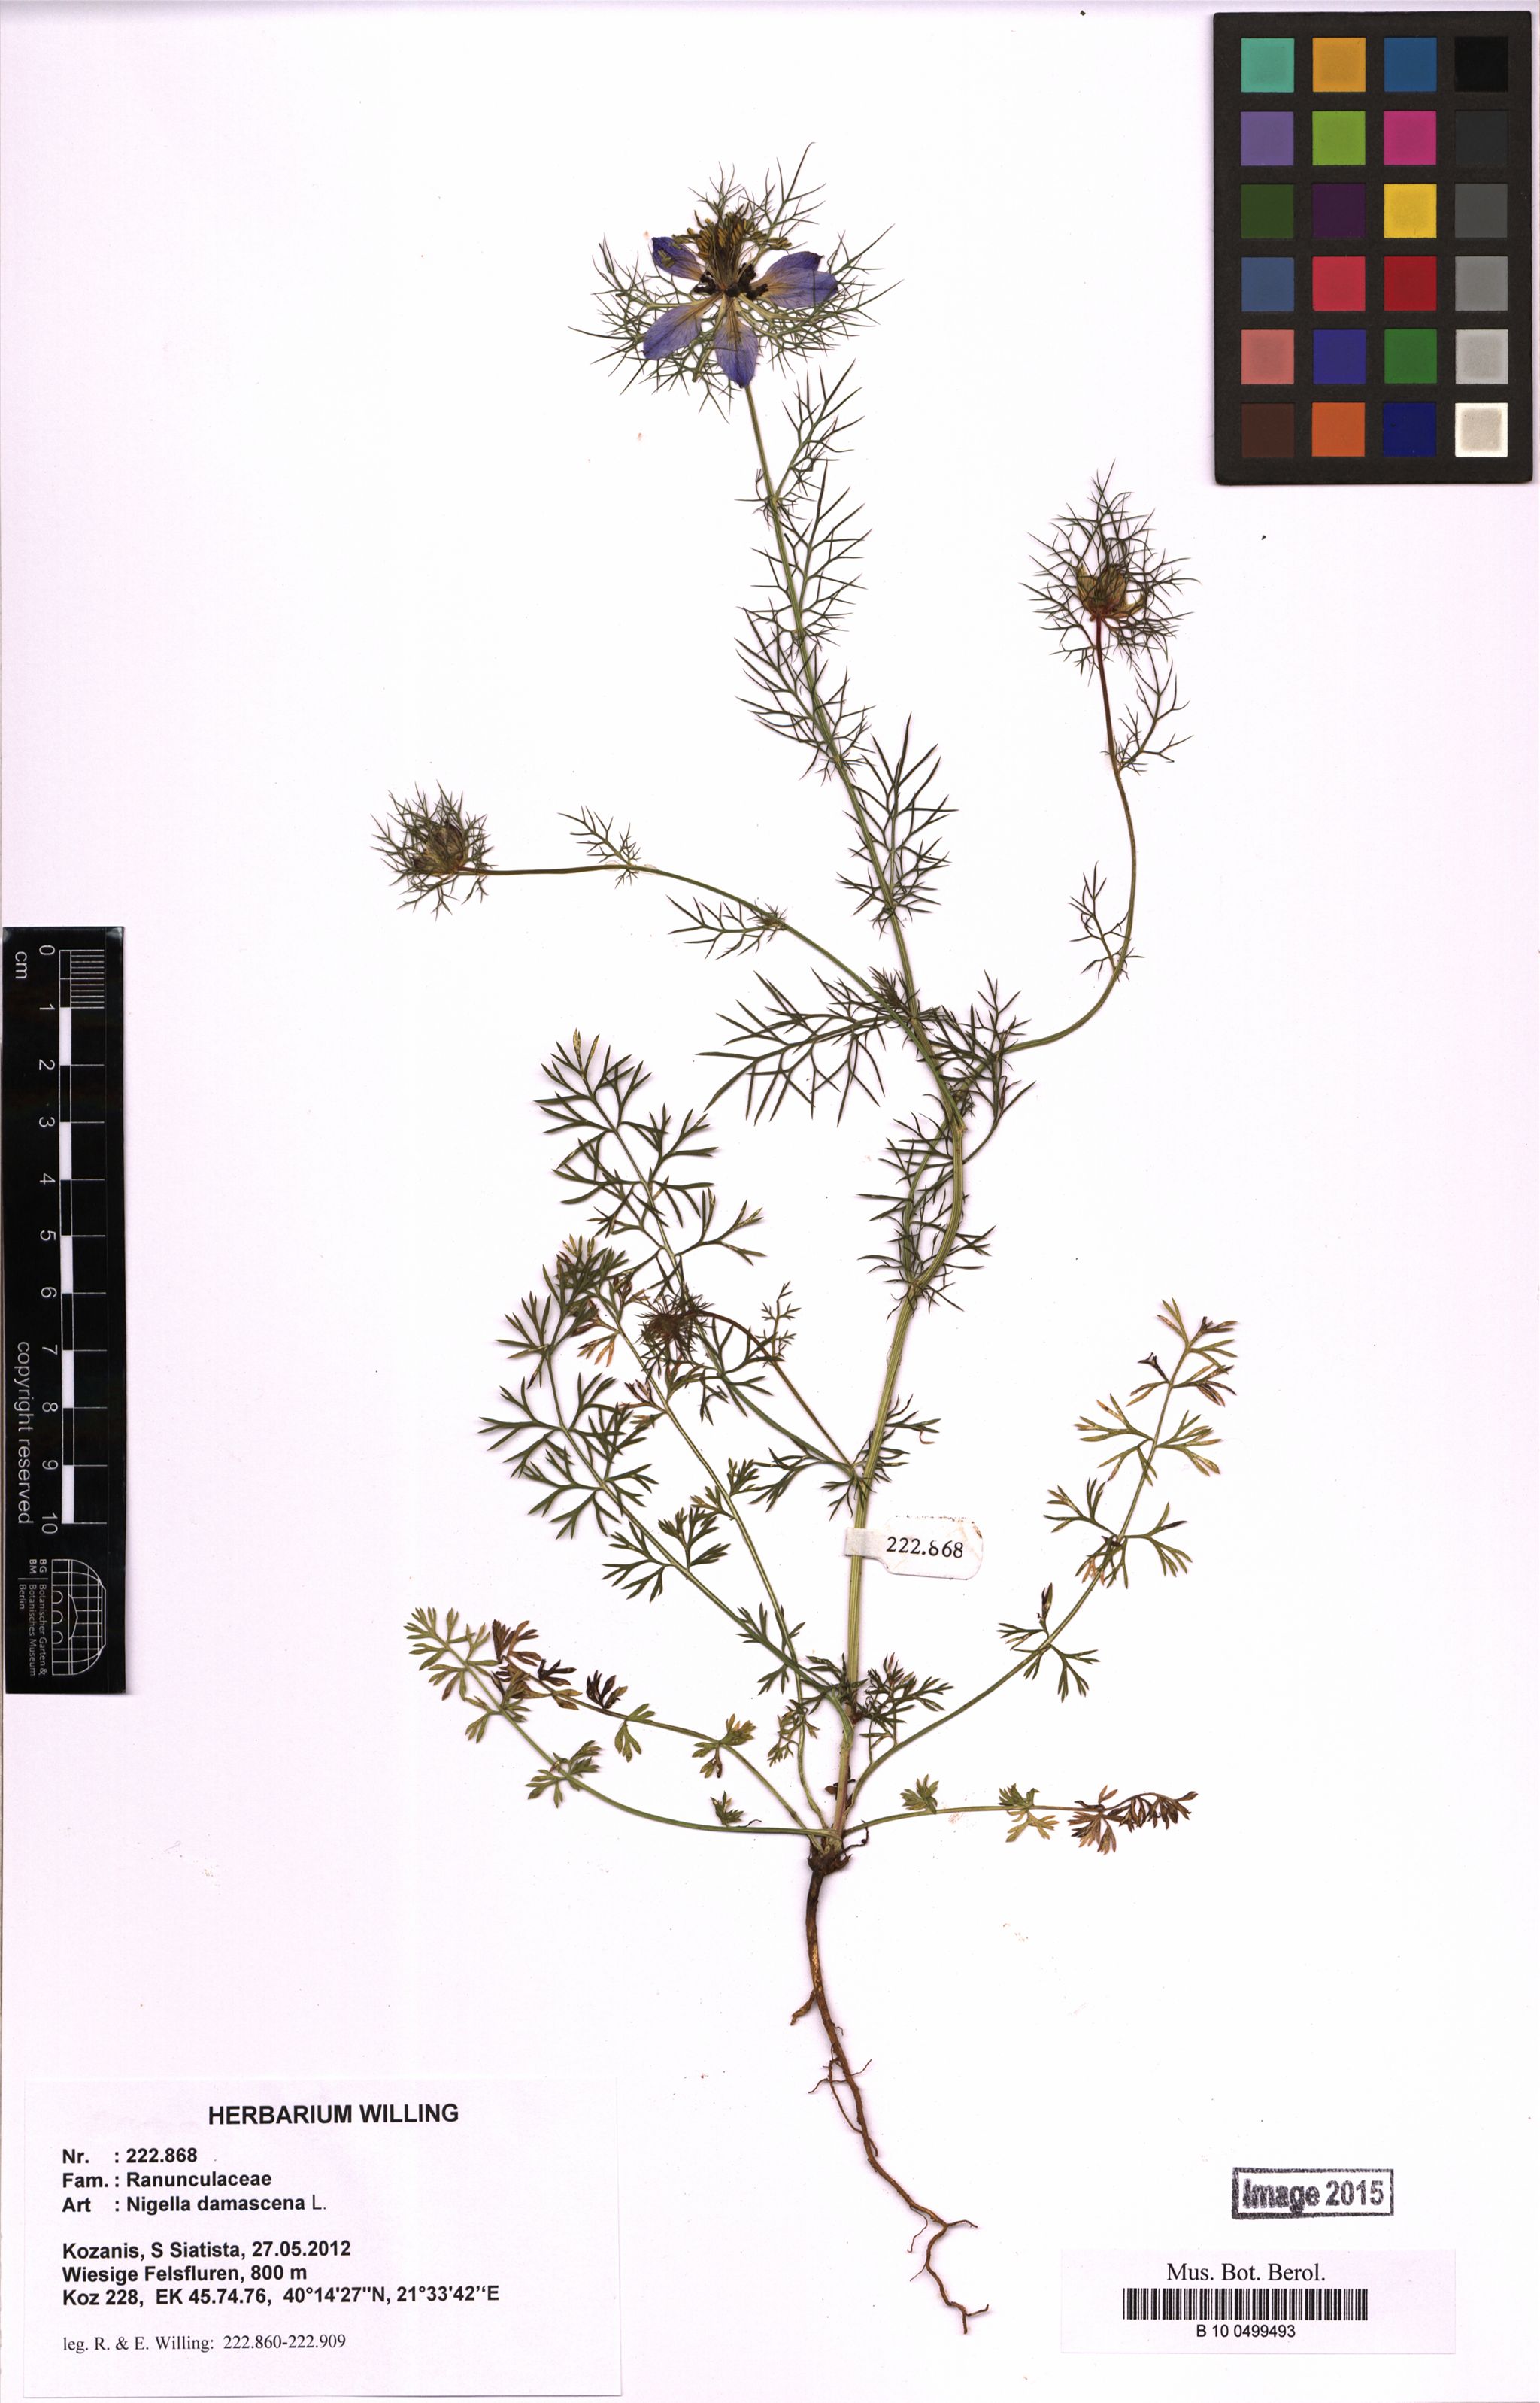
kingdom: Plantae
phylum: Tracheophyta
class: Magnoliopsida
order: Ranunculales
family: Ranunculaceae
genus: Nigella
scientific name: Nigella damascena
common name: Love-in-a-mist
